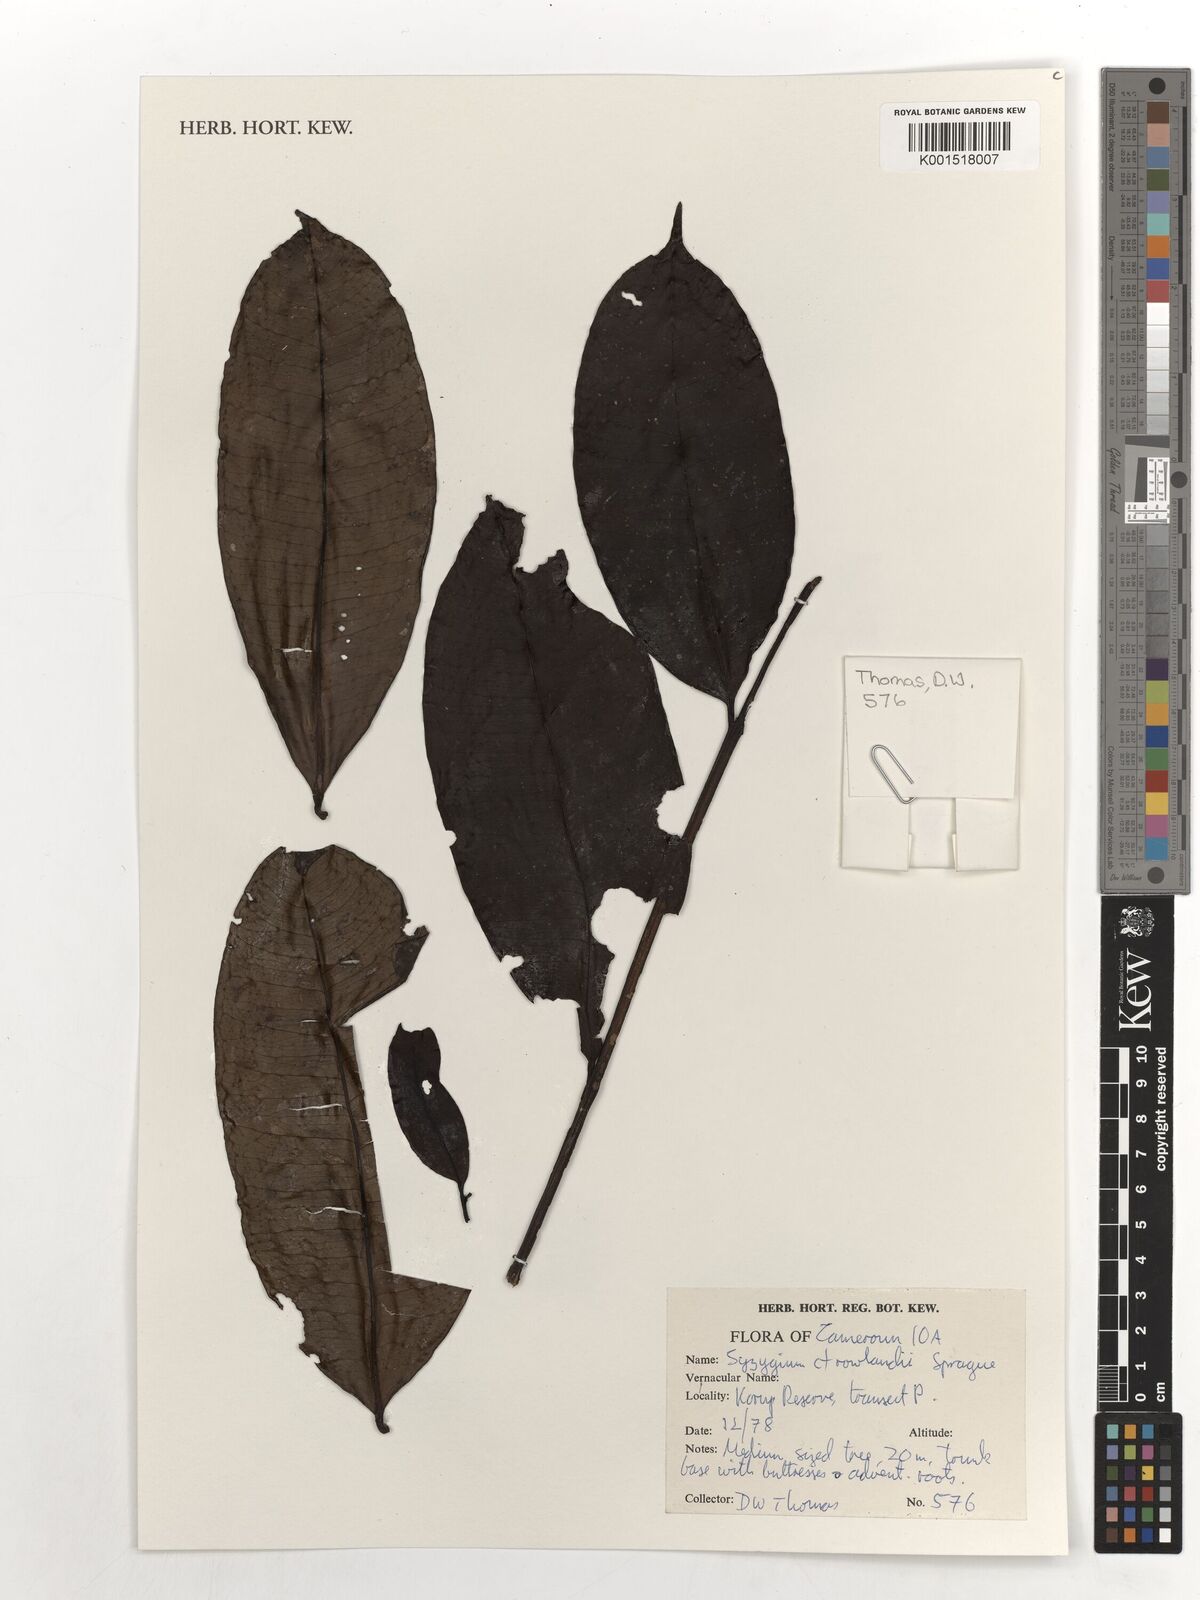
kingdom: Plantae
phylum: Tracheophyta
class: Magnoliopsida
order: Myrtales
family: Myrtaceae
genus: Syzygium
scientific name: Syzygium rowlandii
